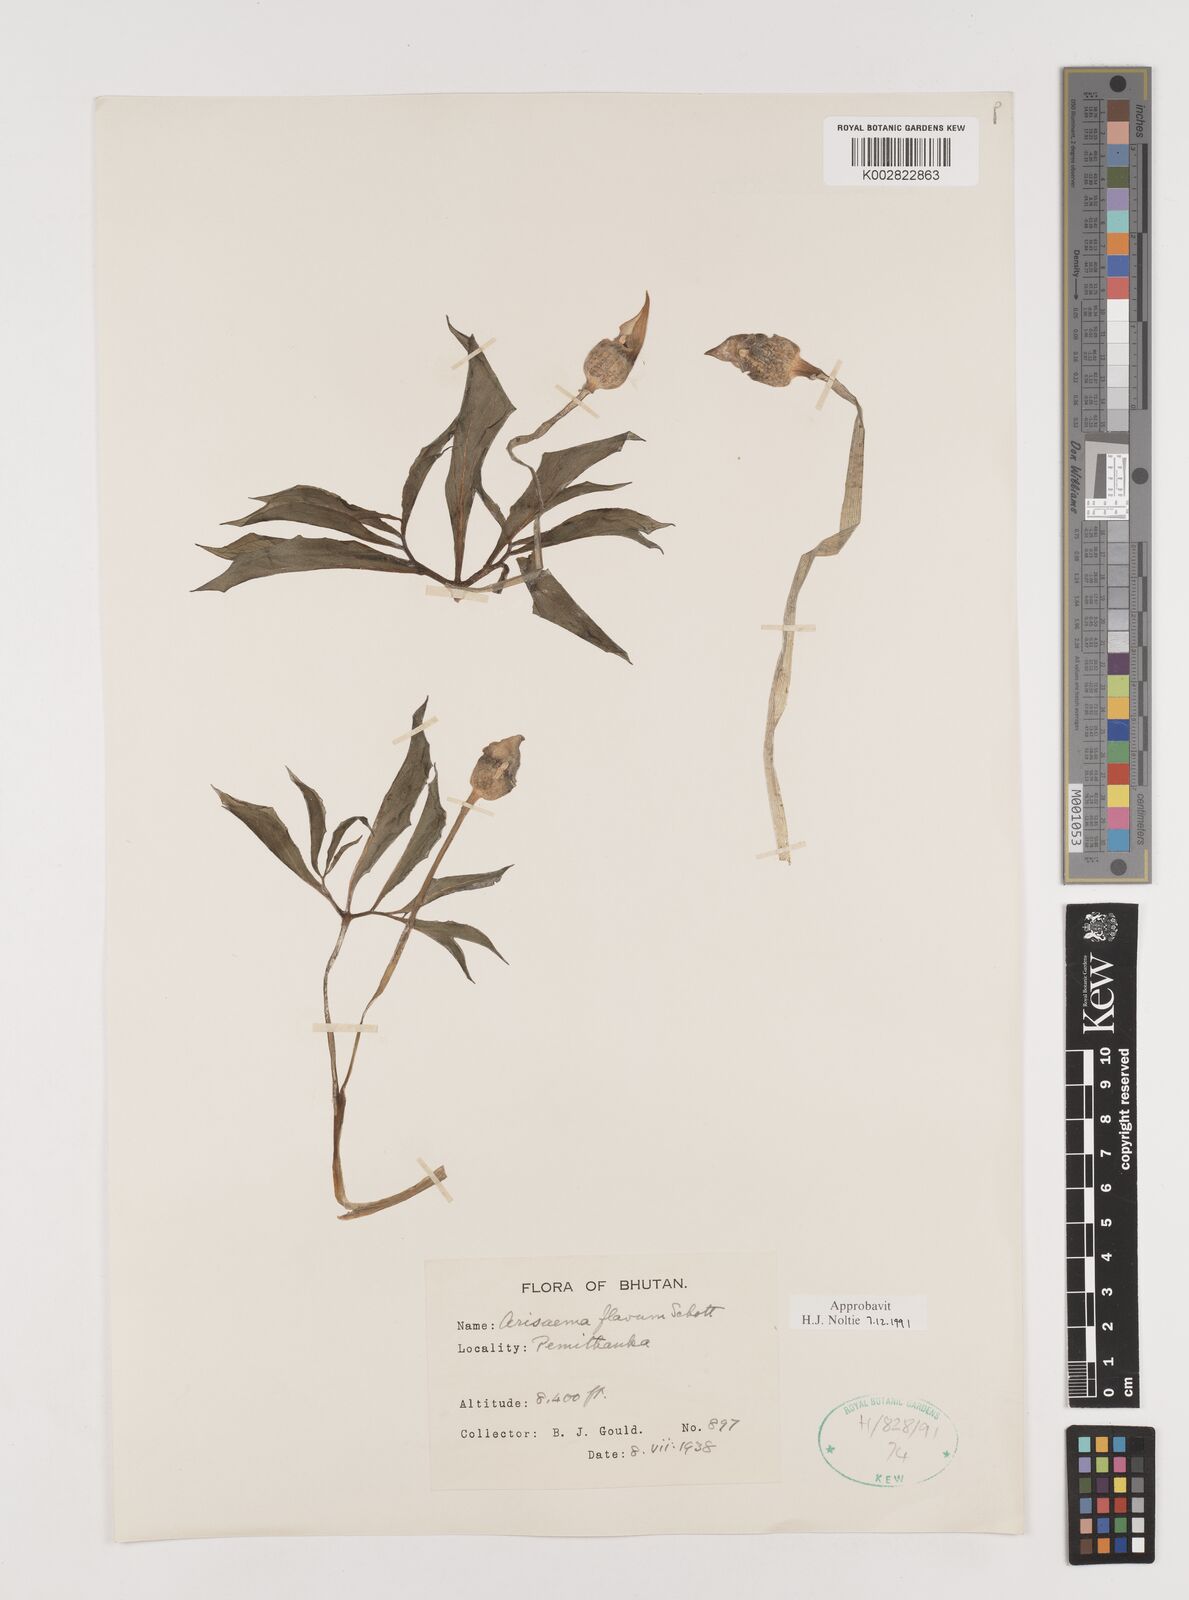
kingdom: Plantae
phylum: Tracheophyta
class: Liliopsida
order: Alismatales
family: Araceae
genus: Arisaema
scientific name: Arisaema flavum
